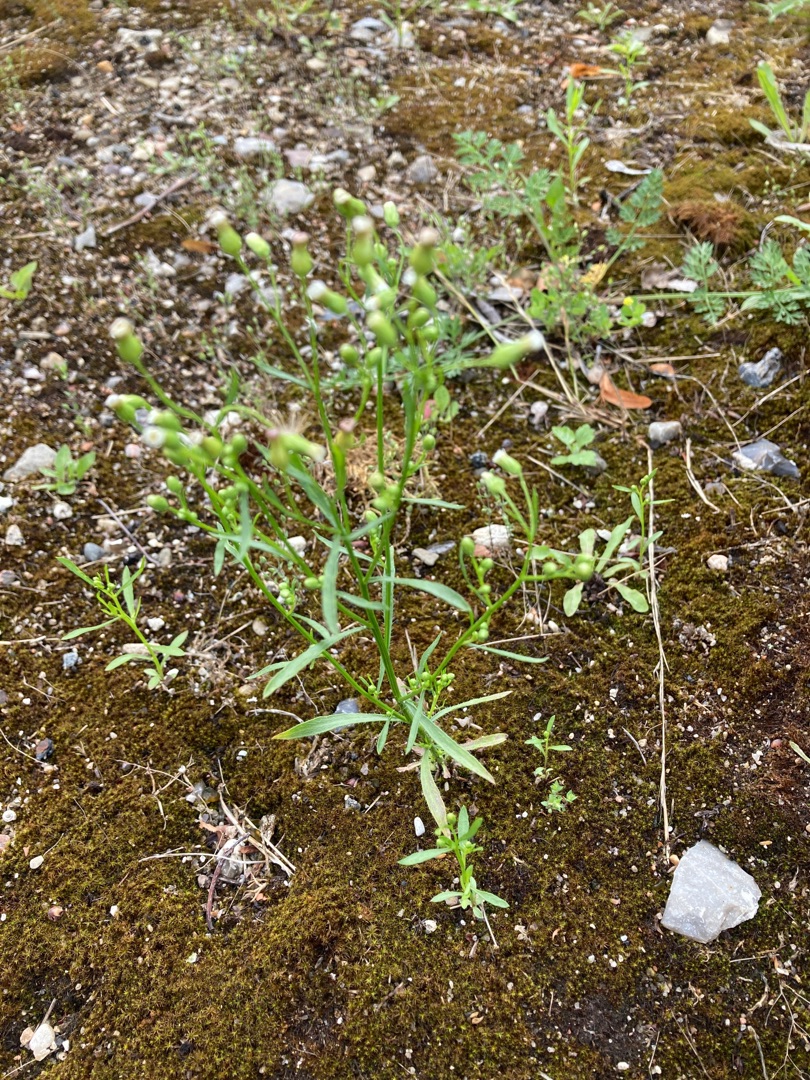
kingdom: Plantae
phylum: Tracheophyta
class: Magnoliopsida
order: Asterales
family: Asteraceae
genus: Erigeron
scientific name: Erigeron canadensis
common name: Kanadisk bakkestjerne
